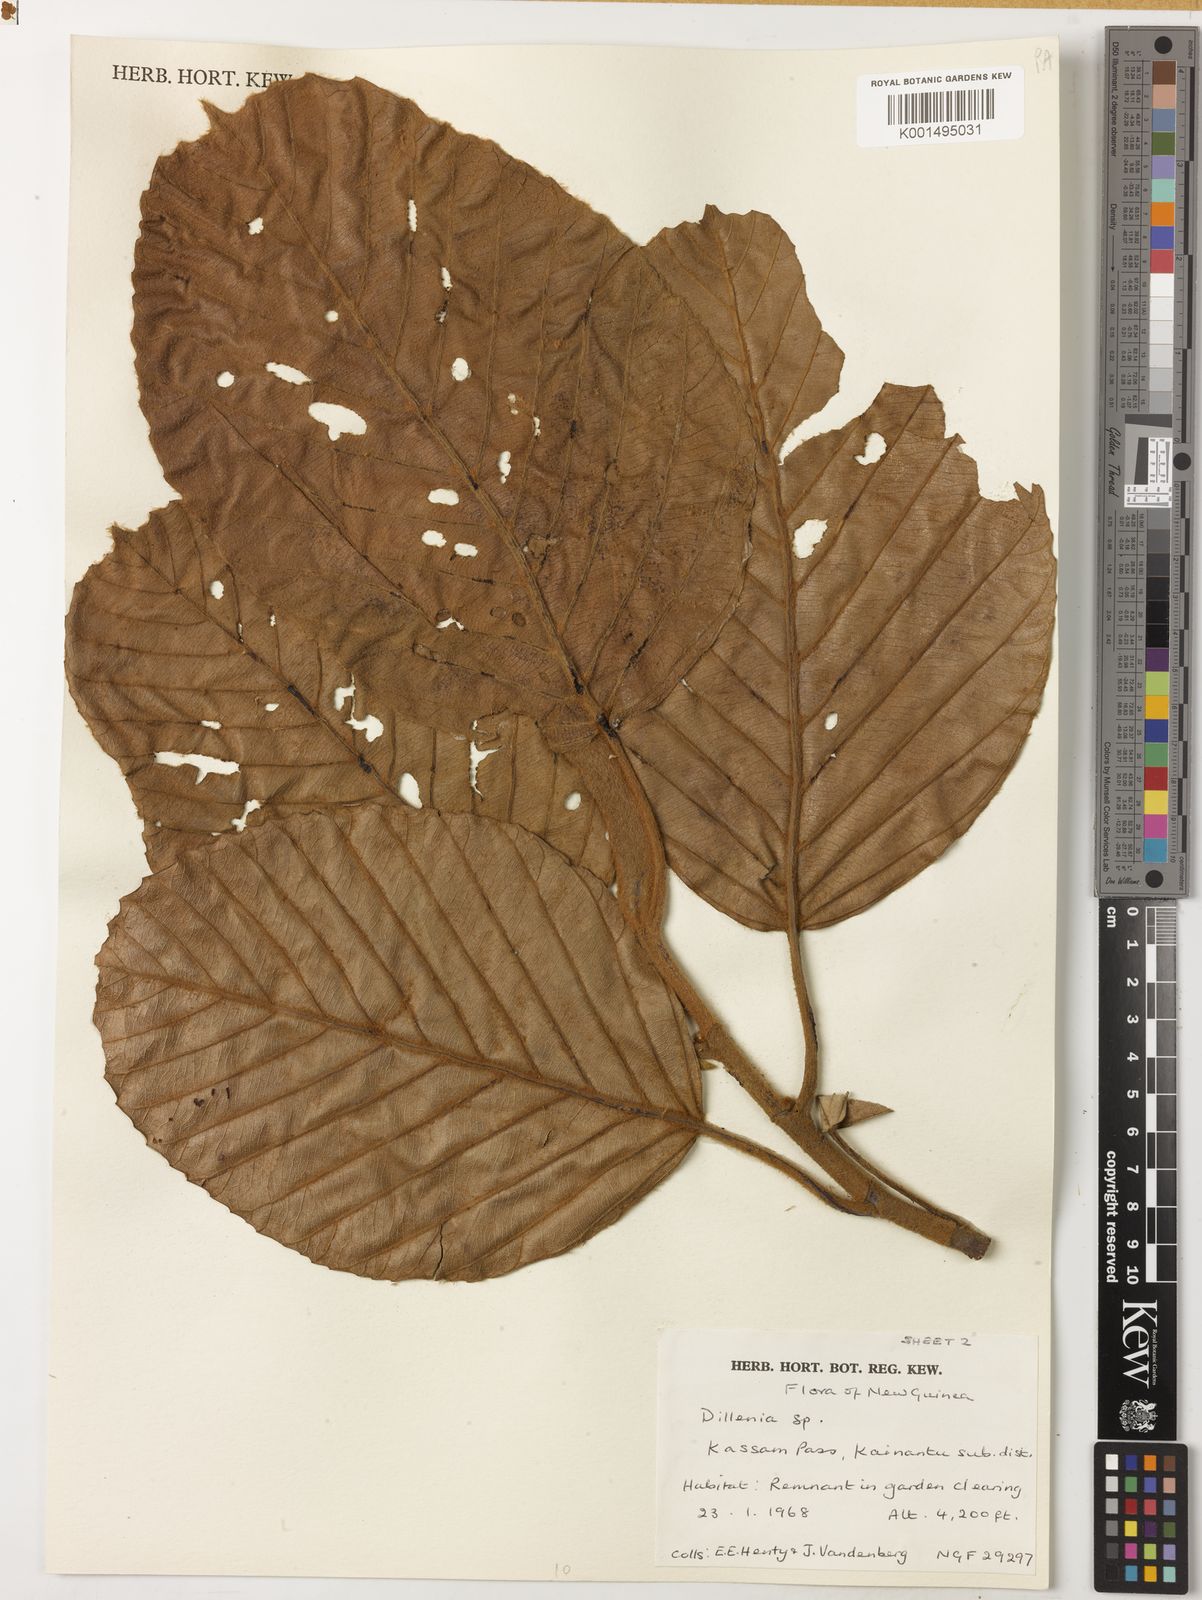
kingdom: Plantae
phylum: Tracheophyta
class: Magnoliopsida
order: Dilleniales
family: Dilleniaceae
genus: Dillenia
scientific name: Dillenia montana
